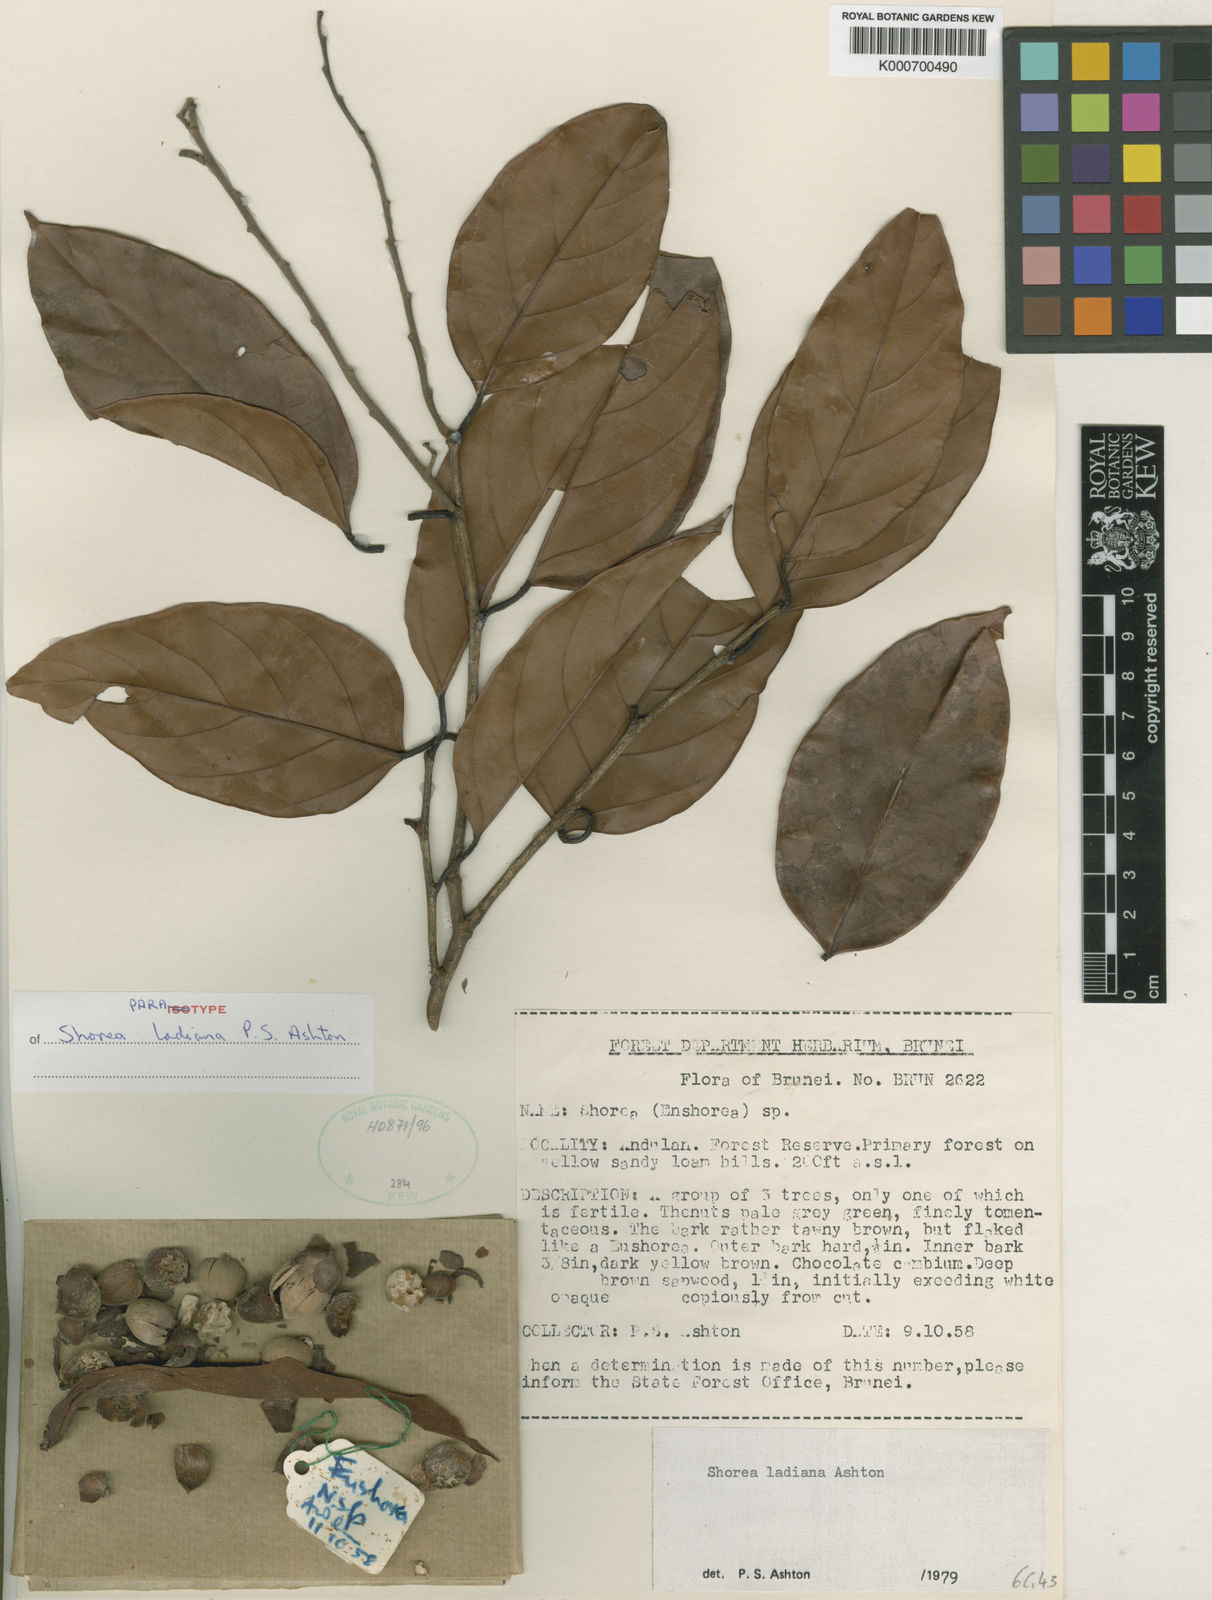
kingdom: Plantae
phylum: Tracheophyta
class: Magnoliopsida
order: Malvales
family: Dipterocarpaceae
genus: Shorea
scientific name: Shorea ladiana
